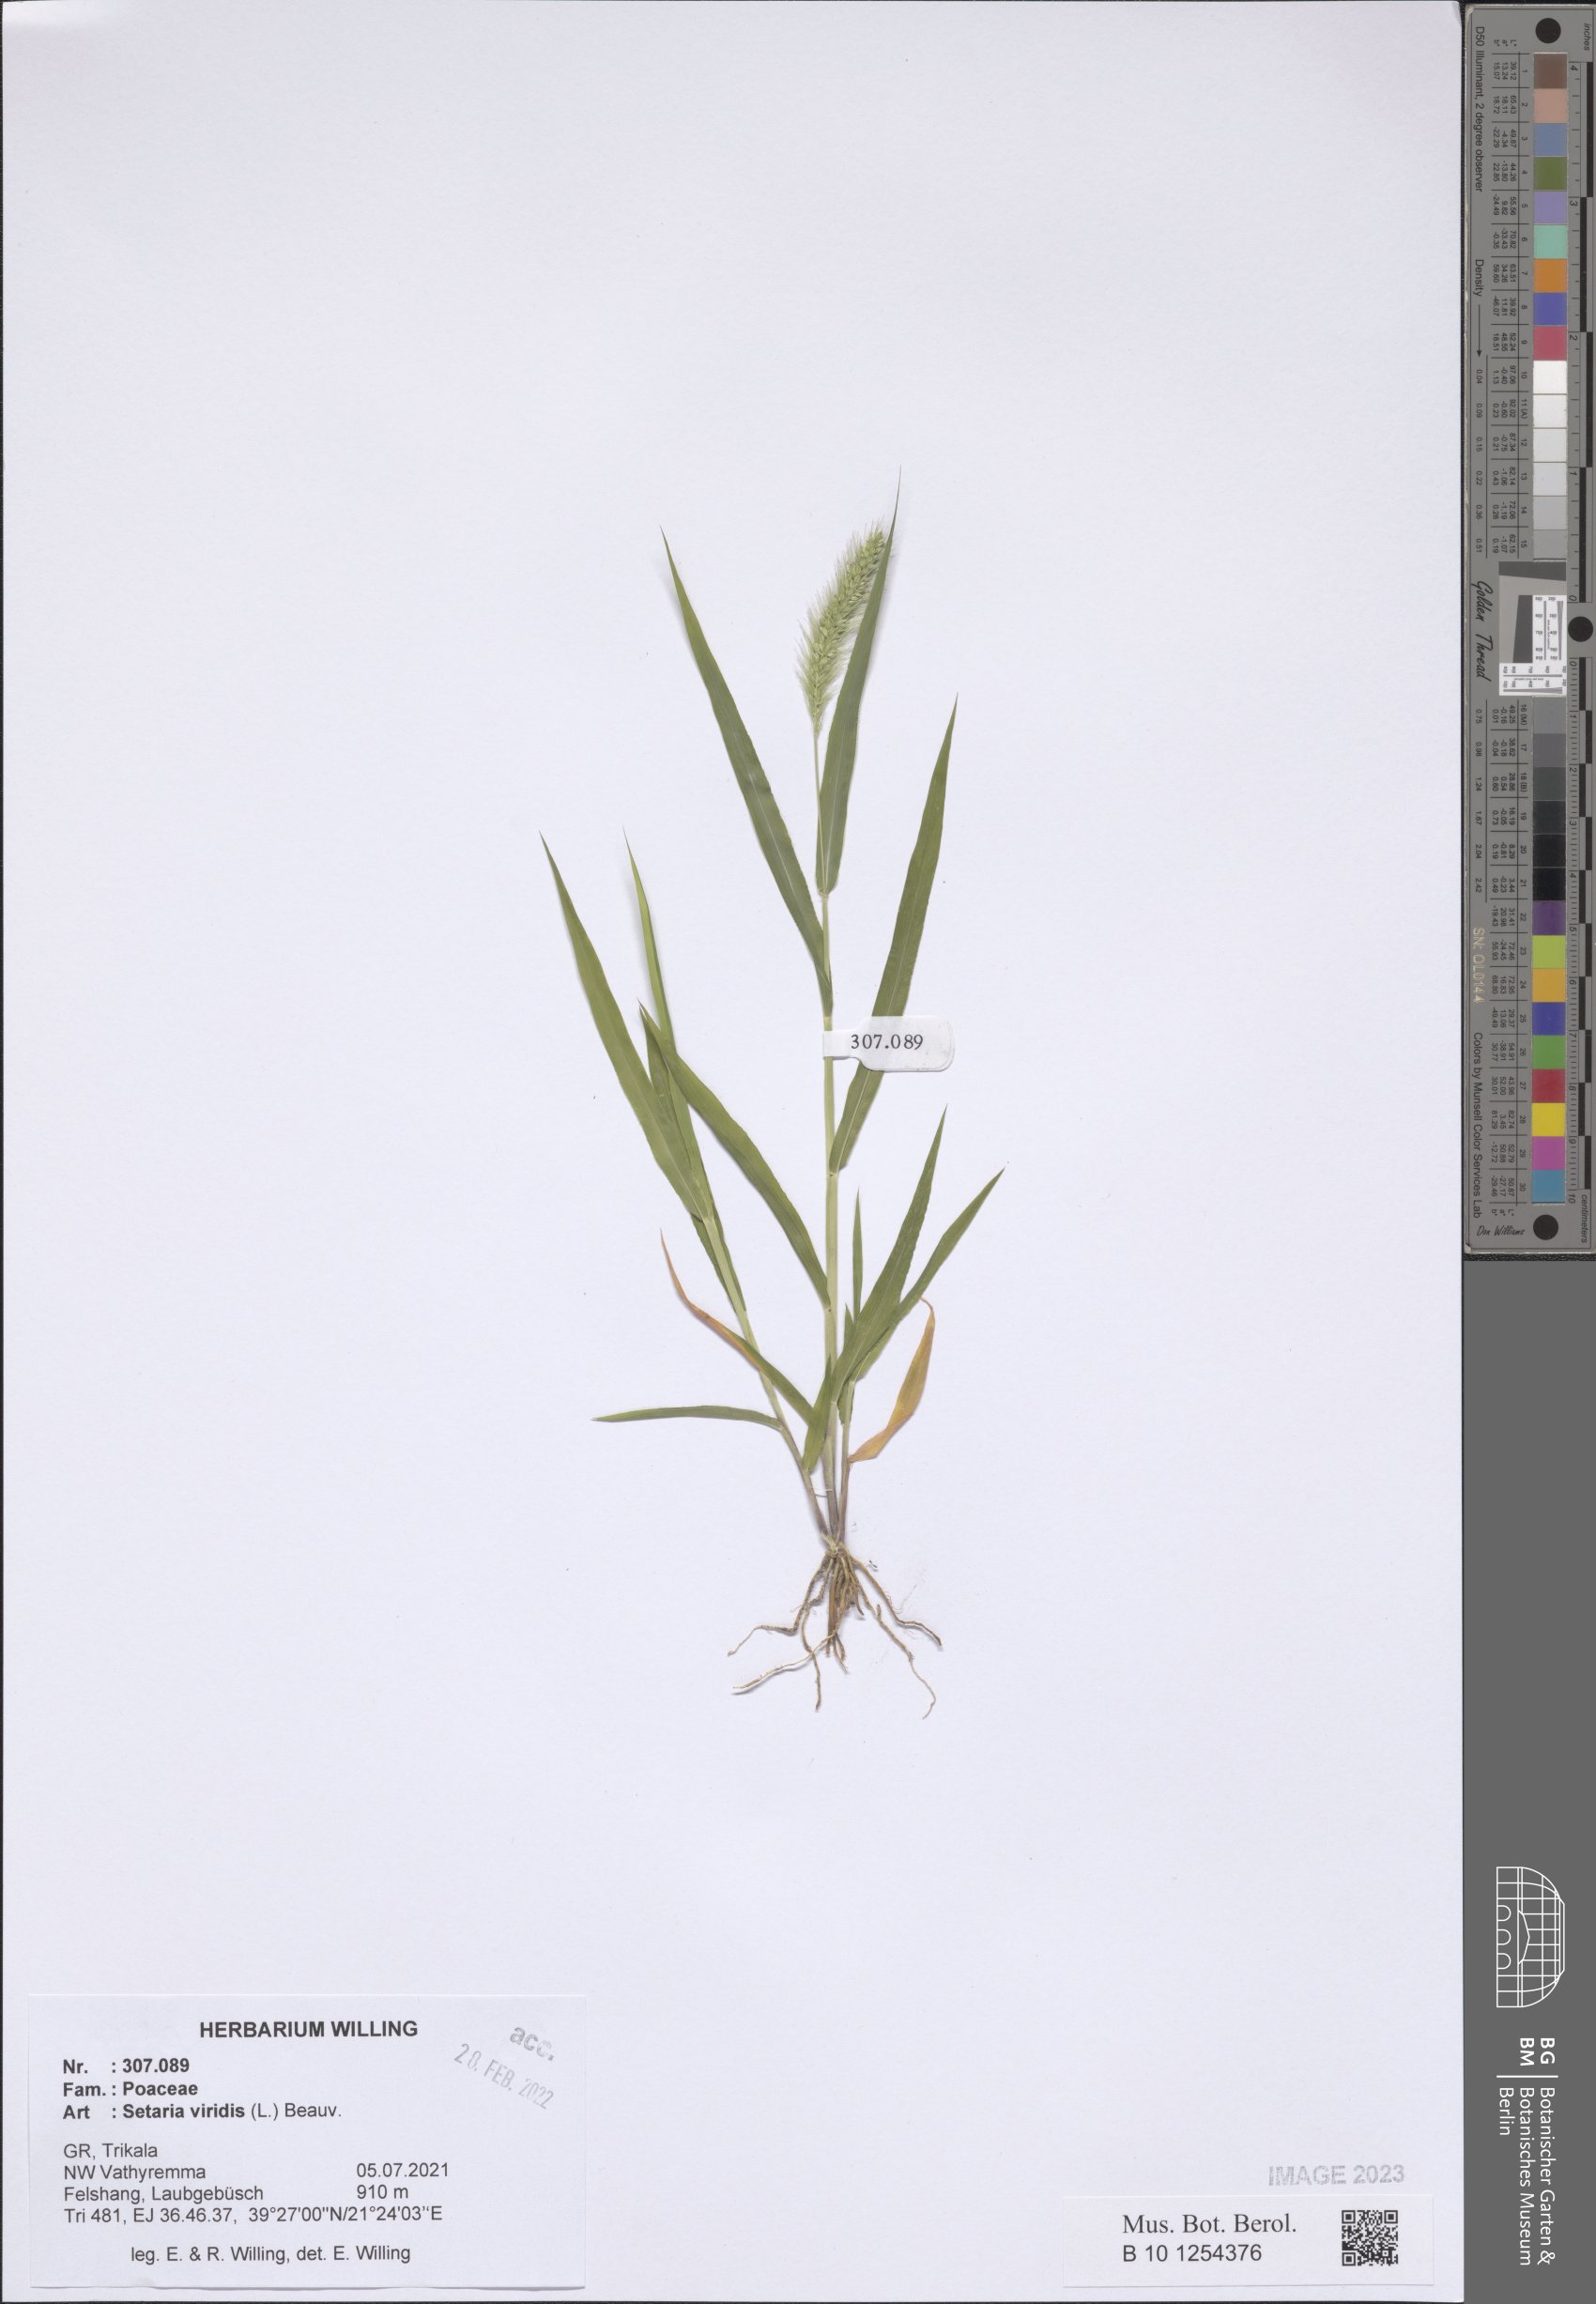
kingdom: Plantae
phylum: Tracheophyta
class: Liliopsida
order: Poales
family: Poaceae
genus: Setaria
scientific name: Setaria viridis
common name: Green bristlegrass
